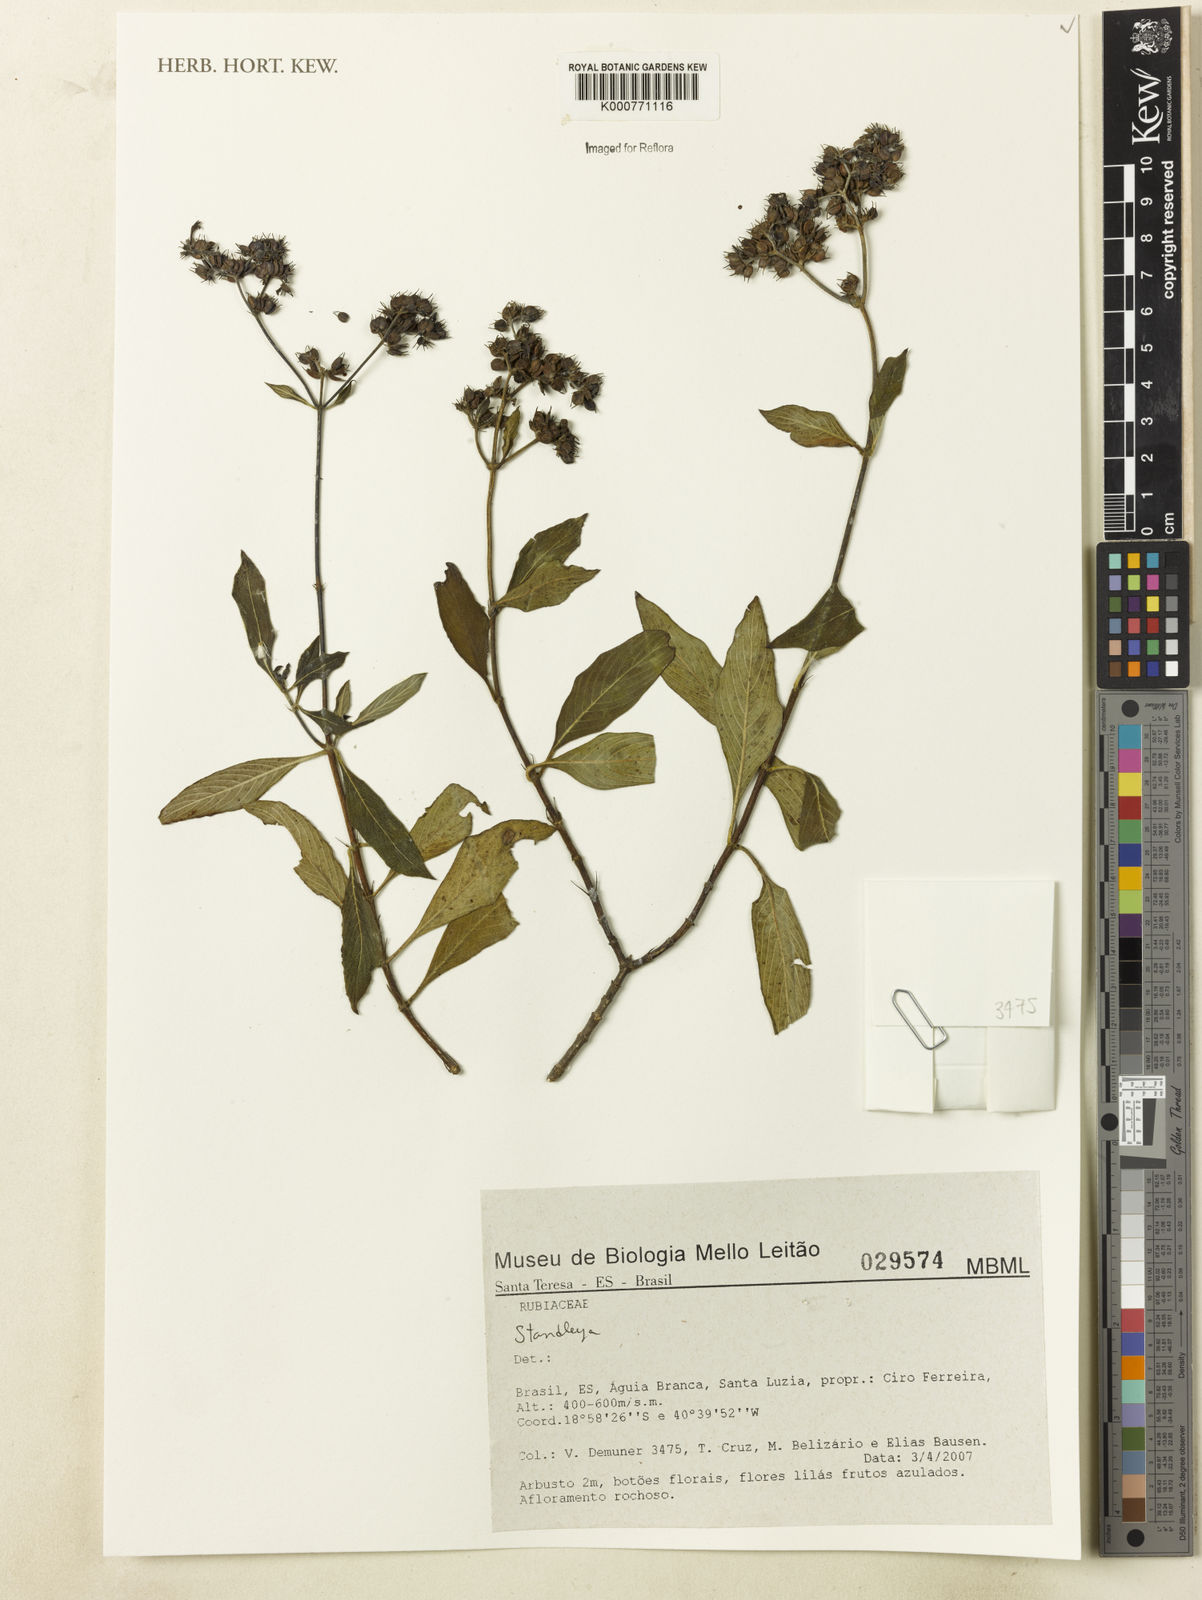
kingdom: Plantae
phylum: Tracheophyta
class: Magnoliopsida
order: Gentianales
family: Rubiaceae
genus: Standleya
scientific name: Standleya
